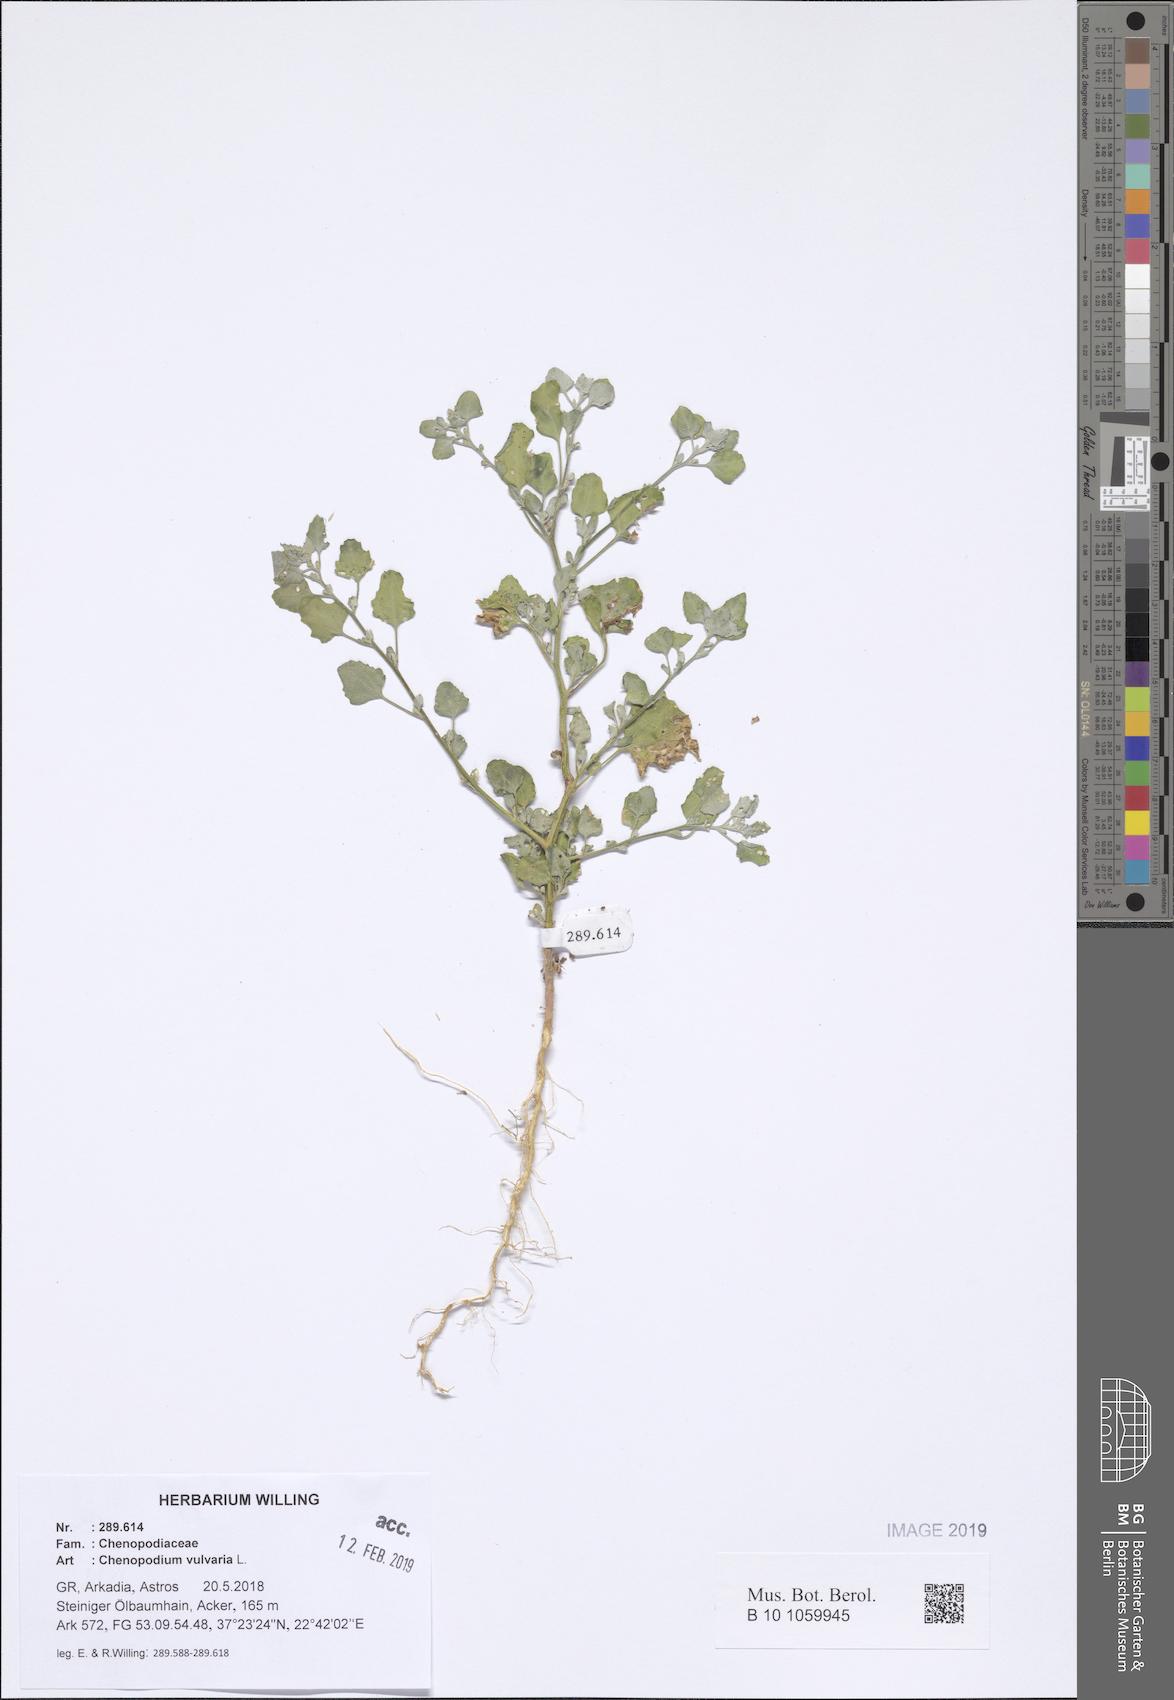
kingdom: Plantae
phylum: Tracheophyta
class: Magnoliopsida
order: Caryophyllales
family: Amaranthaceae
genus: Chenopodium
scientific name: Chenopodium vulvaria
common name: Stinking goosefoot
